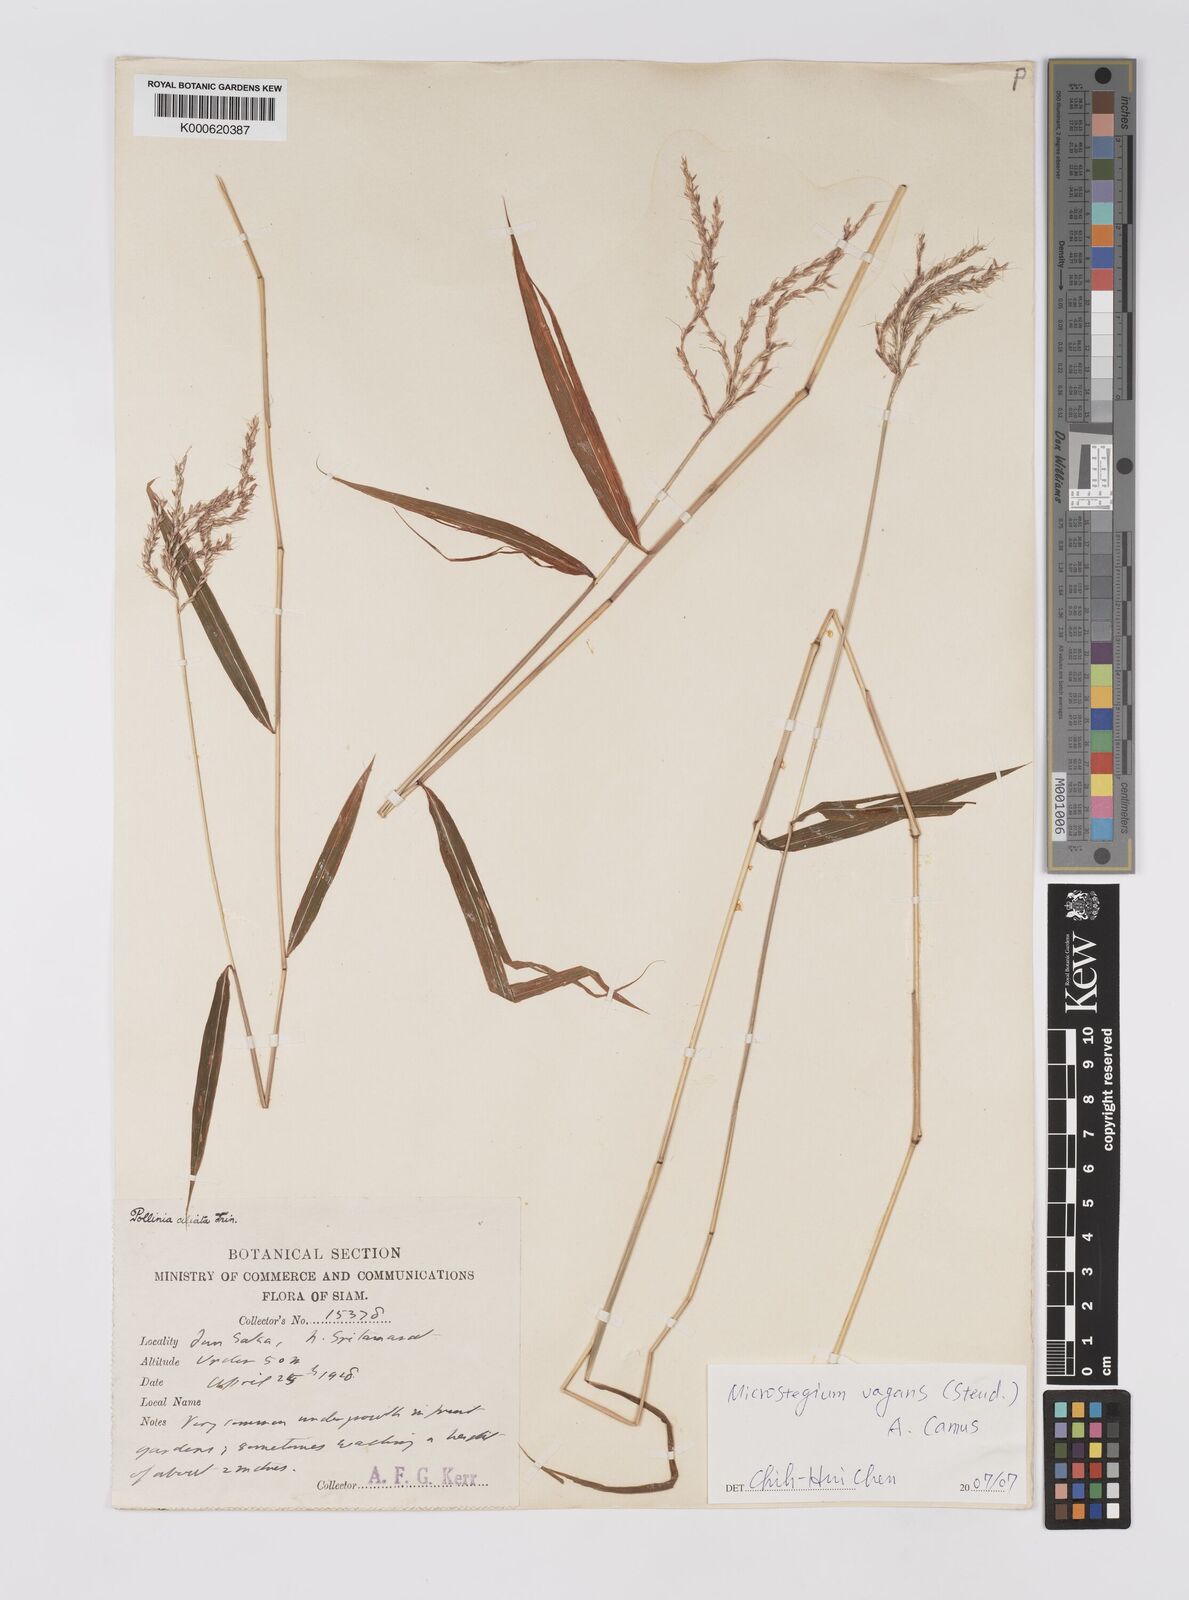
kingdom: Plantae
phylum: Tracheophyta
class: Liliopsida
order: Poales
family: Poaceae
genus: Microstegium
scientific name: Microstegium fasciculatum
